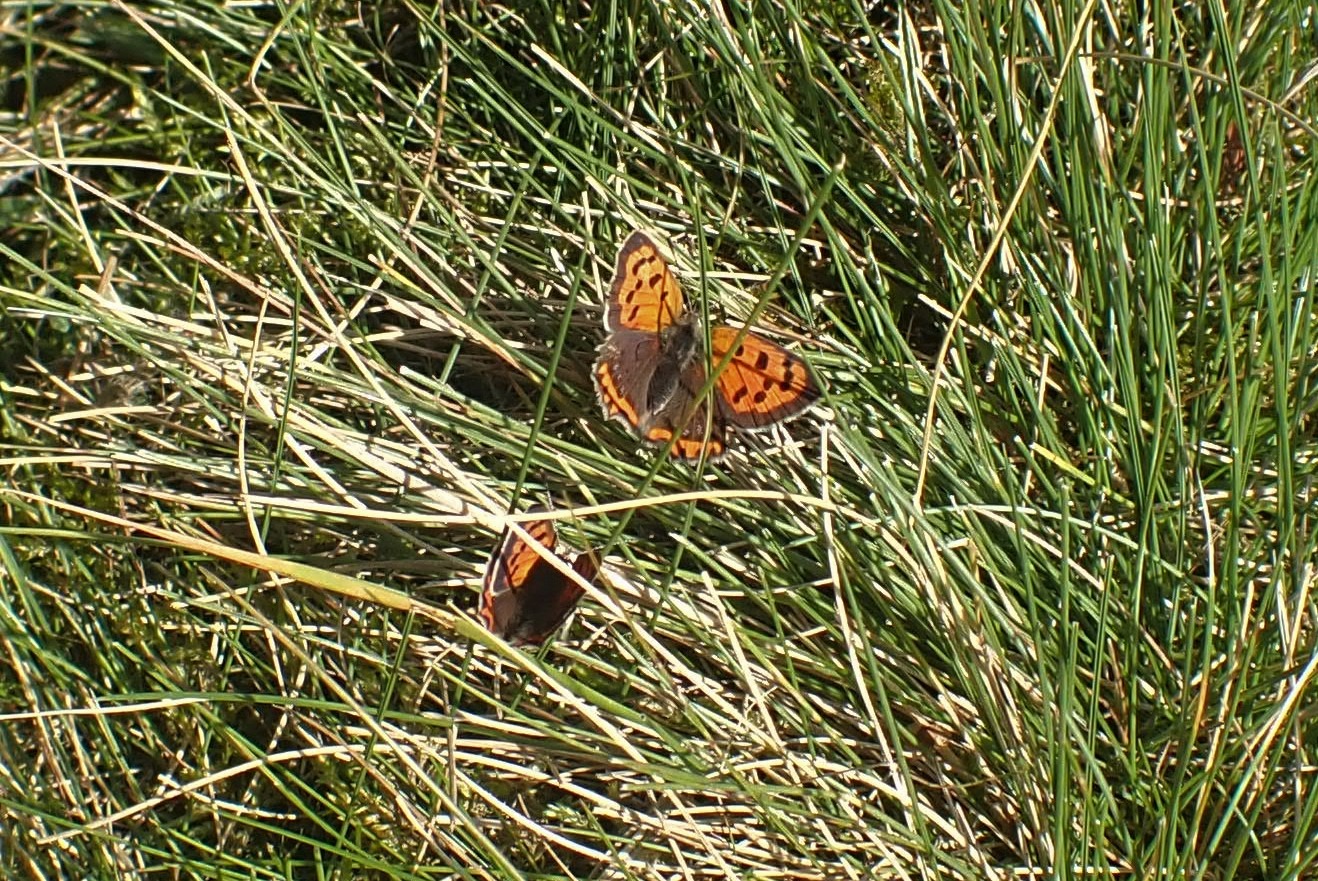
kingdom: Animalia
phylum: Arthropoda
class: Insecta
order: Lepidoptera
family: Lycaenidae
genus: Lycaena
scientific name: Lycaena phlaeas
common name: Lille ildfugl
